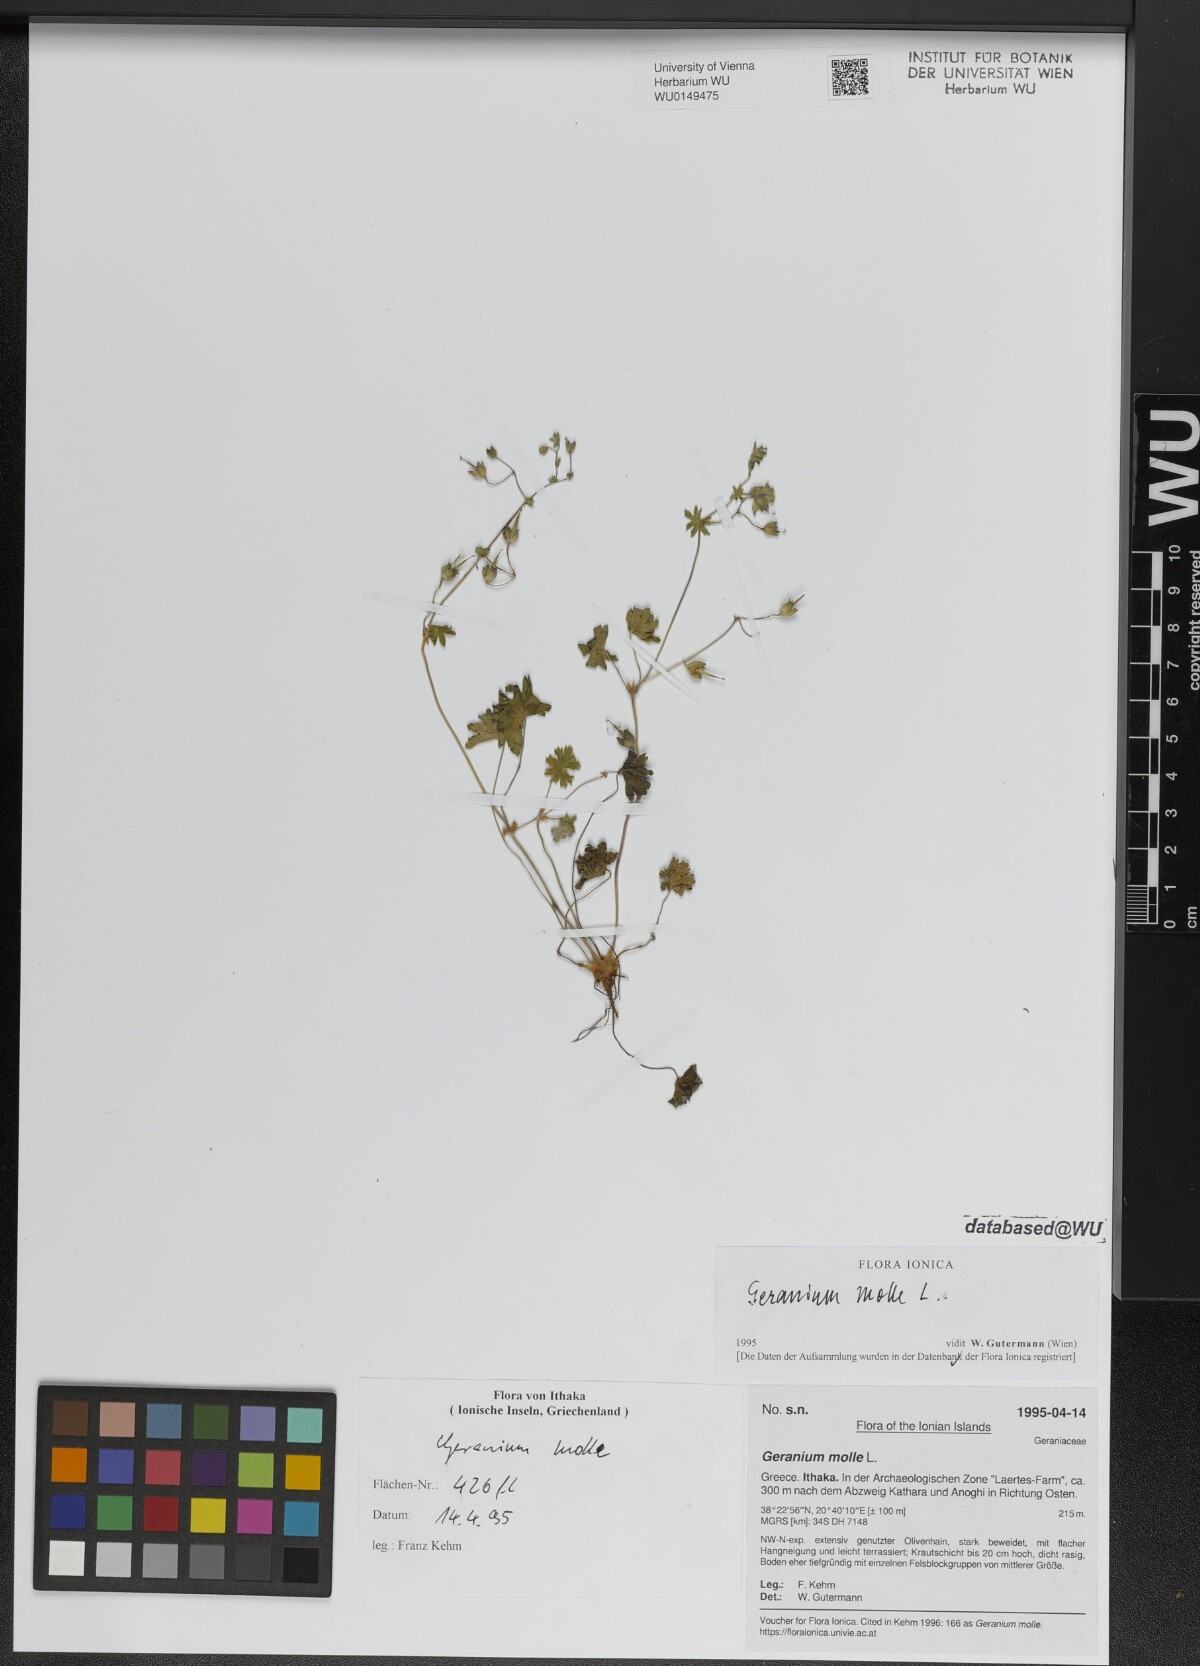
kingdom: Plantae
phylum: Tracheophyta
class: Magnoliopsida
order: Geraniales
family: Geraniaceae
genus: Geranium
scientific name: Geranium molle
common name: Dove's-foot crane's-bill
